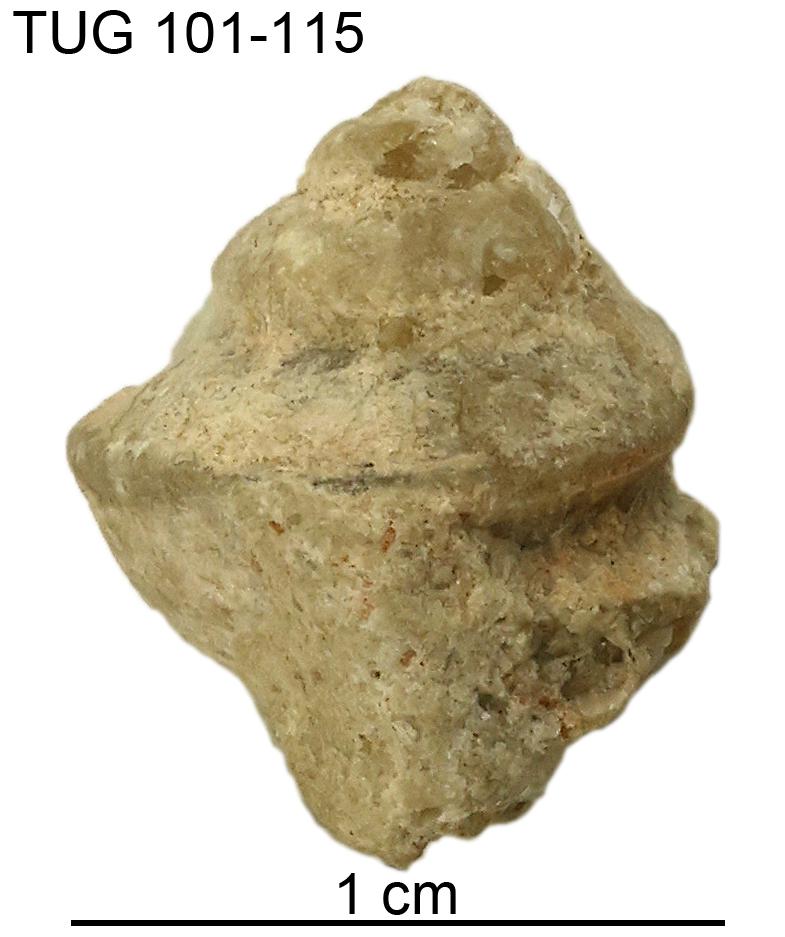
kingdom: Animalia
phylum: Mollusca
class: Gastropoda
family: Trochonematidae
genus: Trochonema
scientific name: Trochonema panderi
